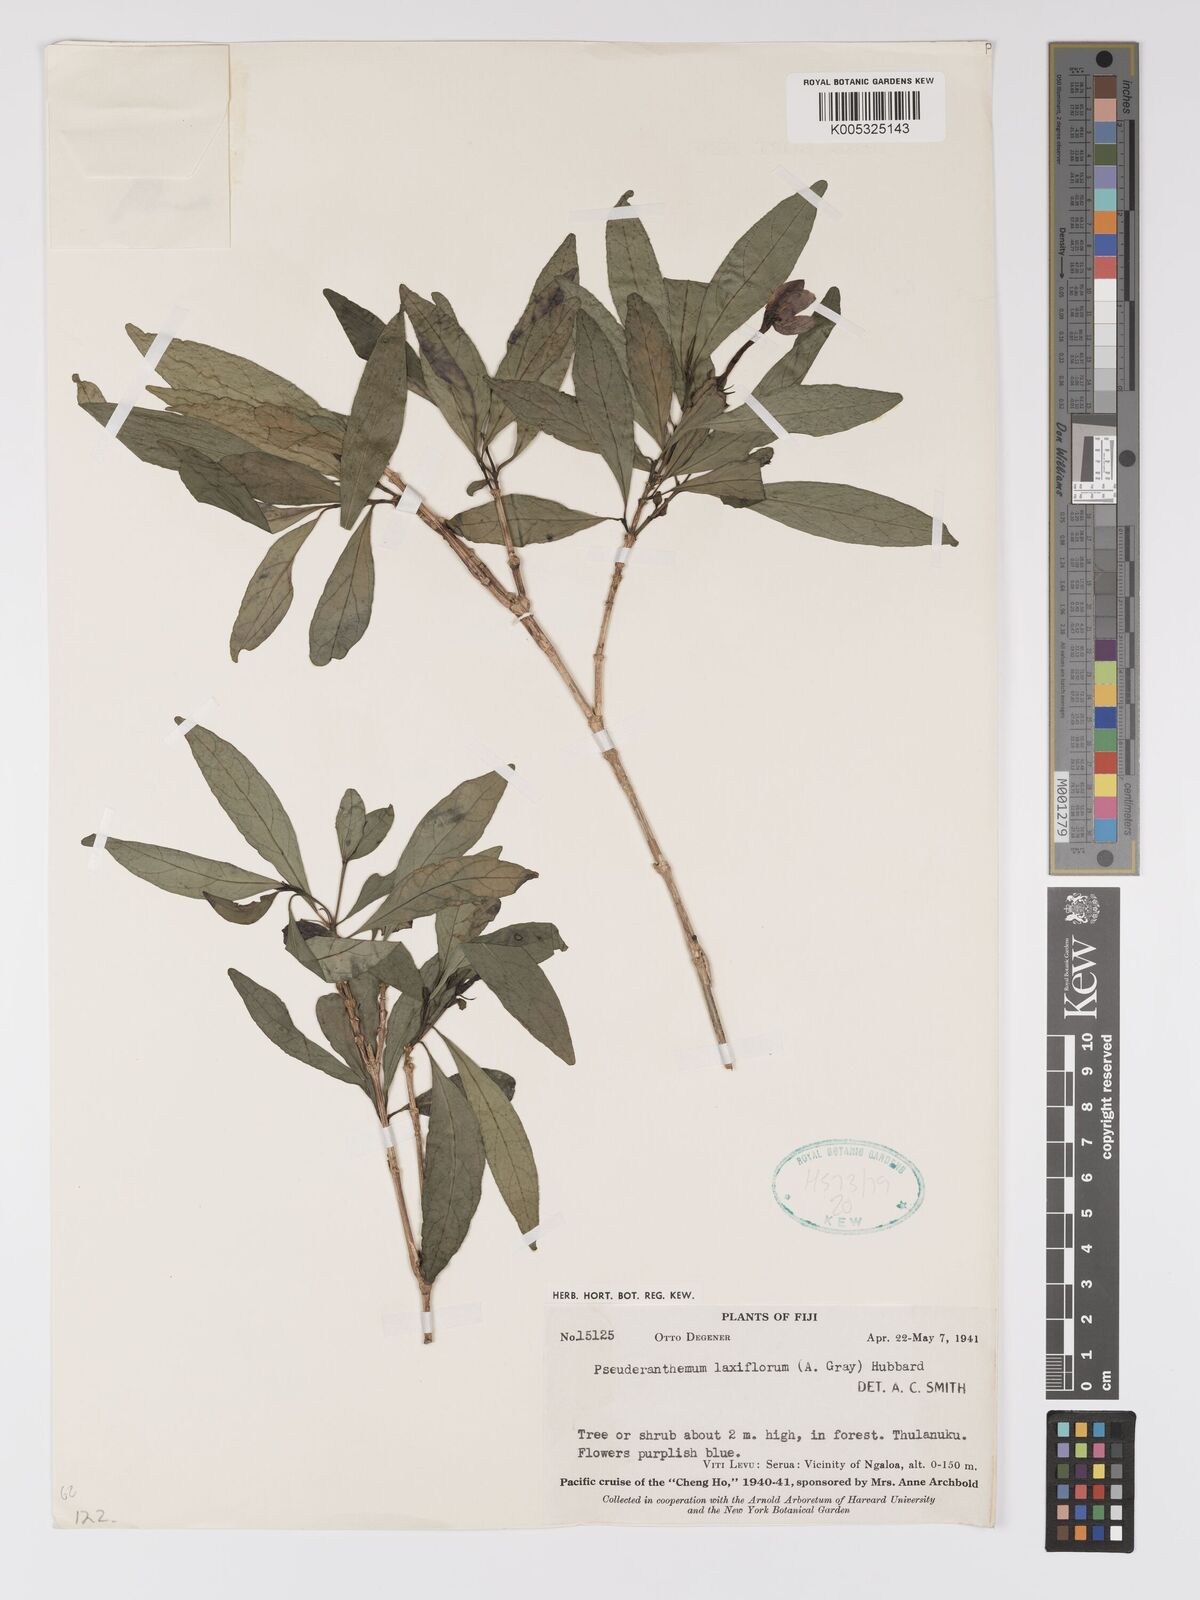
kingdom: Plantae
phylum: Tracheophyta
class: Magnoliopsida
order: Lamiales
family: Acanthaceae
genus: Pseuderanthemum
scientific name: Pseuderanthemum laxiflorum
